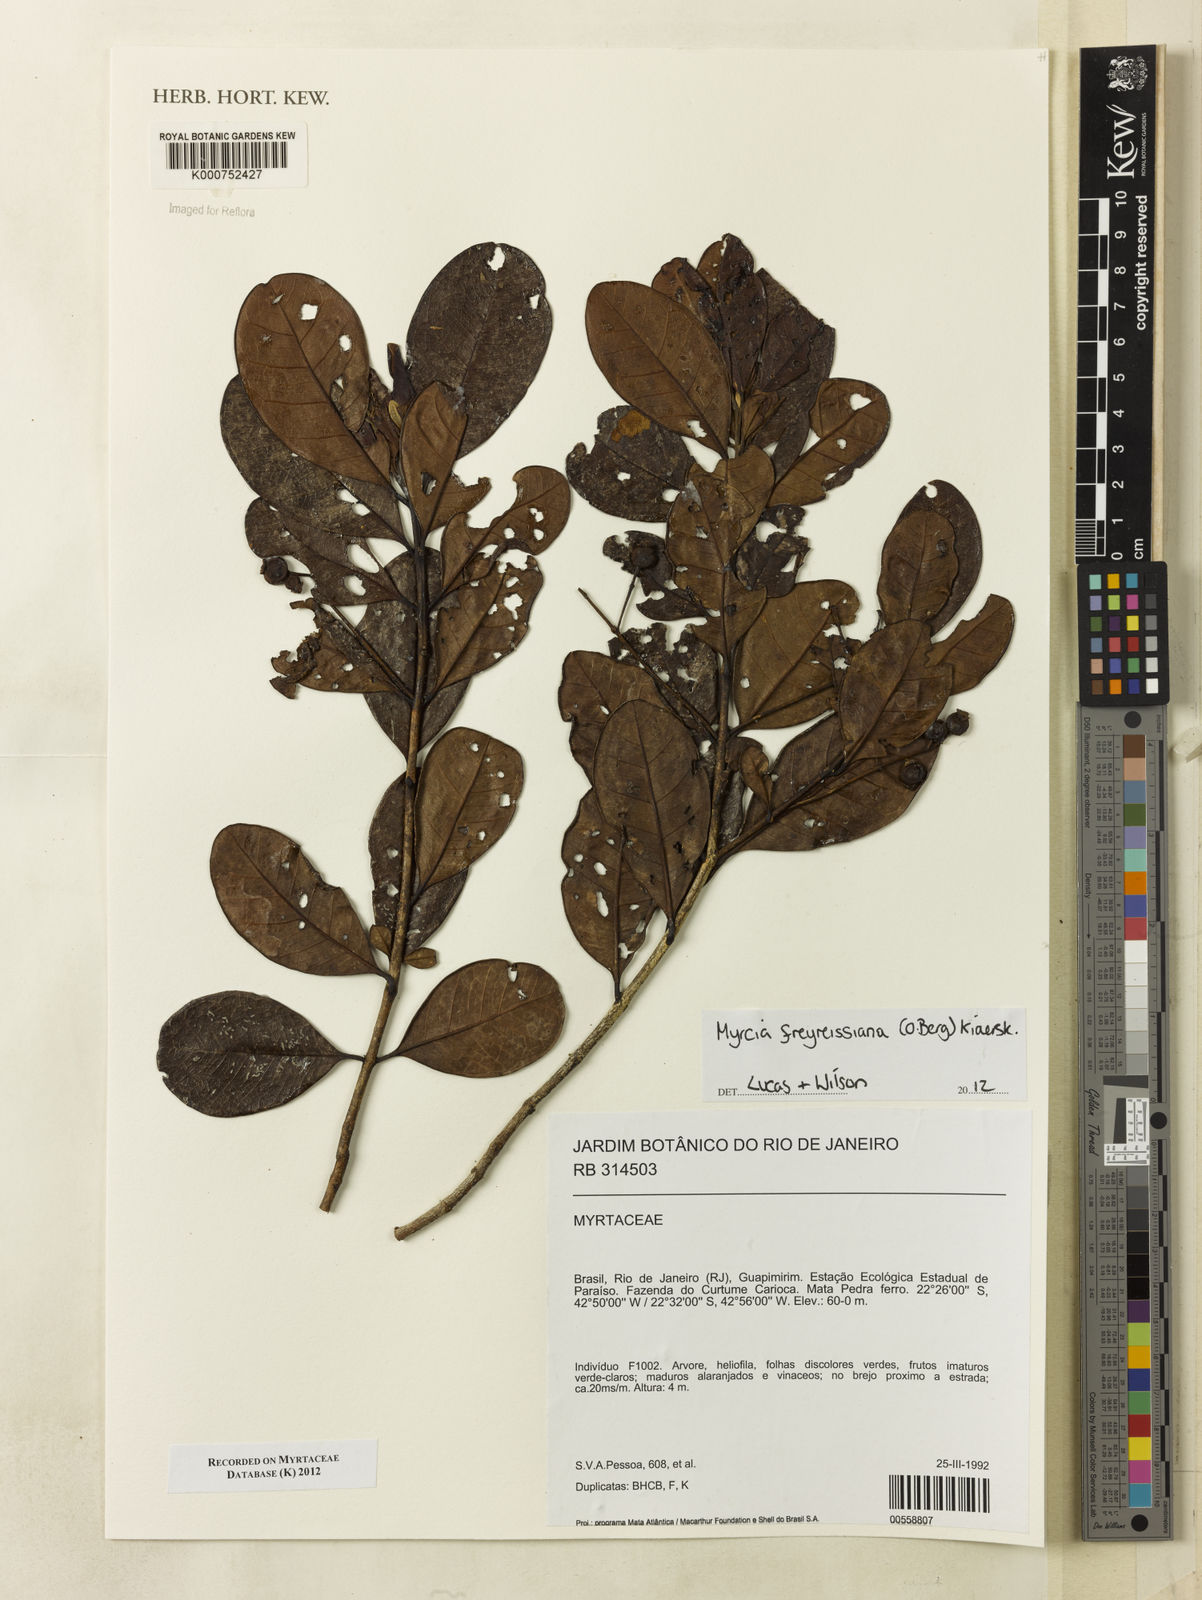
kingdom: Plantae
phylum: Tracheophyta
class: Magnoliopsida
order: Myrtales
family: Myrtaceae
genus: Myrcia
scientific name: Myrcia freyreissiana
